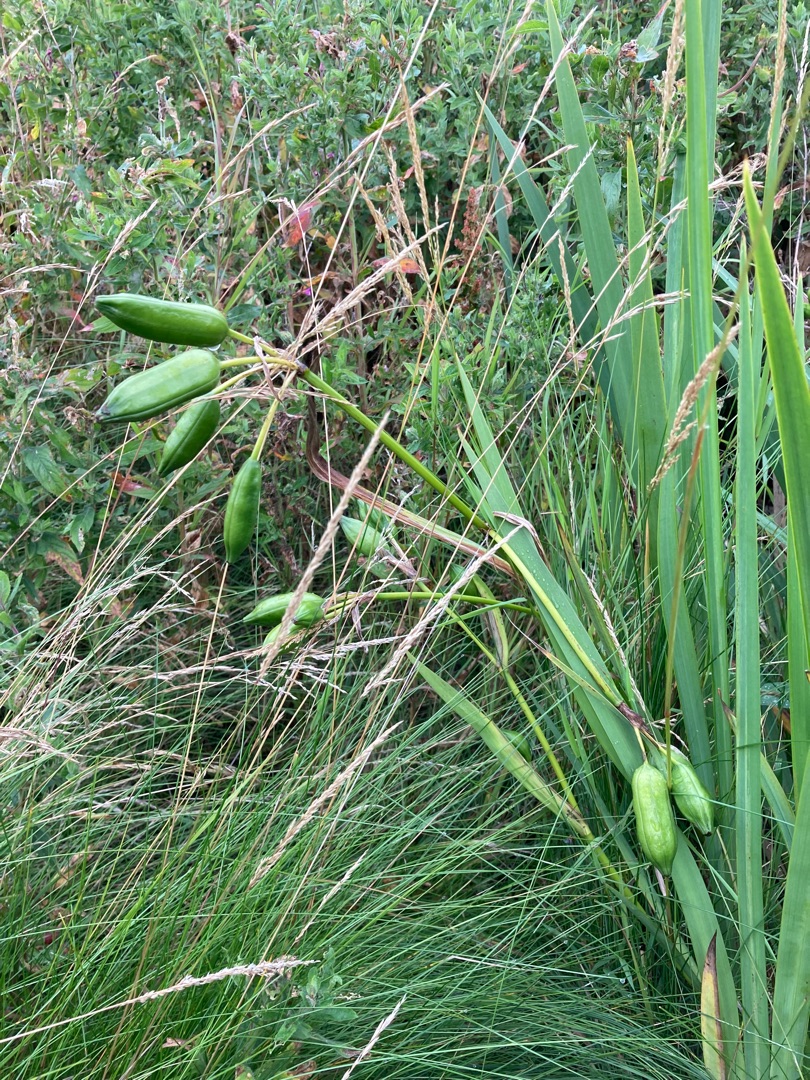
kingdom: Plantae
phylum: Tracheophyta
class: Liliopsida
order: Asparagales
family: Iridaceae
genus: Iris
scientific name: Iris pseudacorus
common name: Gul iris
